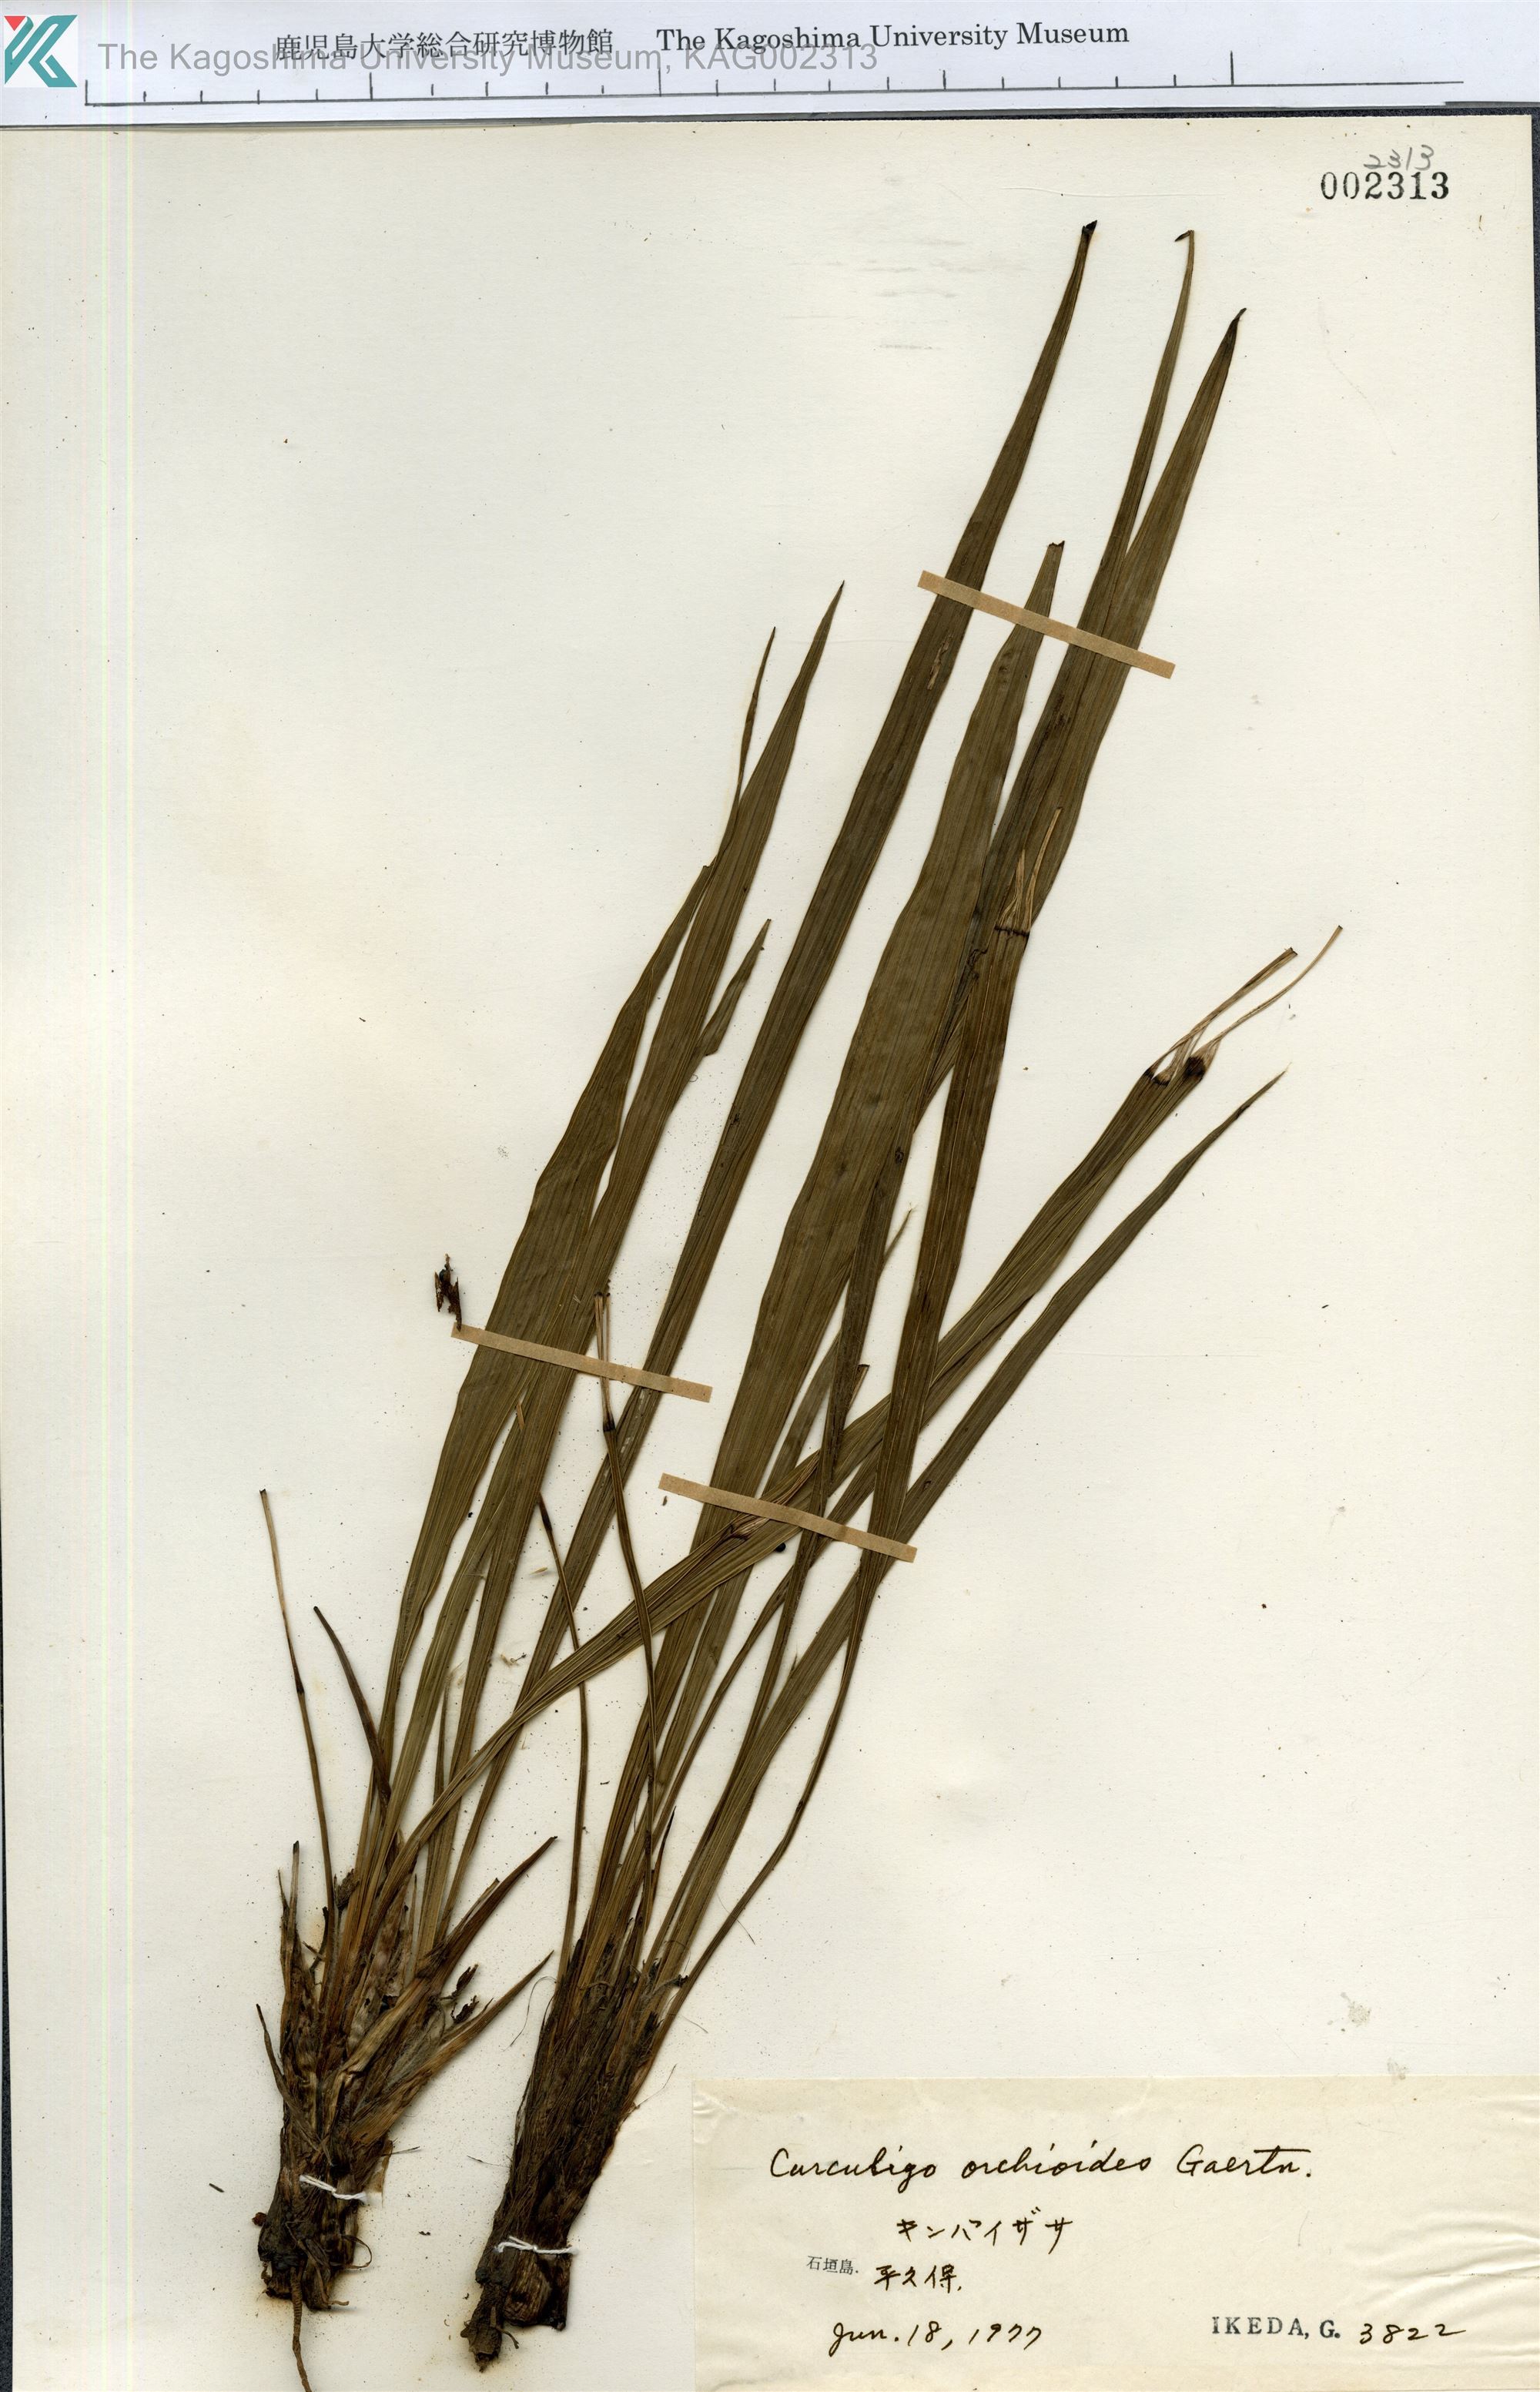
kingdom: Plantae
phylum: Tracheophyta
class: Liliopsida
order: Asparagales
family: Hypoxidaceae
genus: Curculigo
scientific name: Curculigo orchioides
